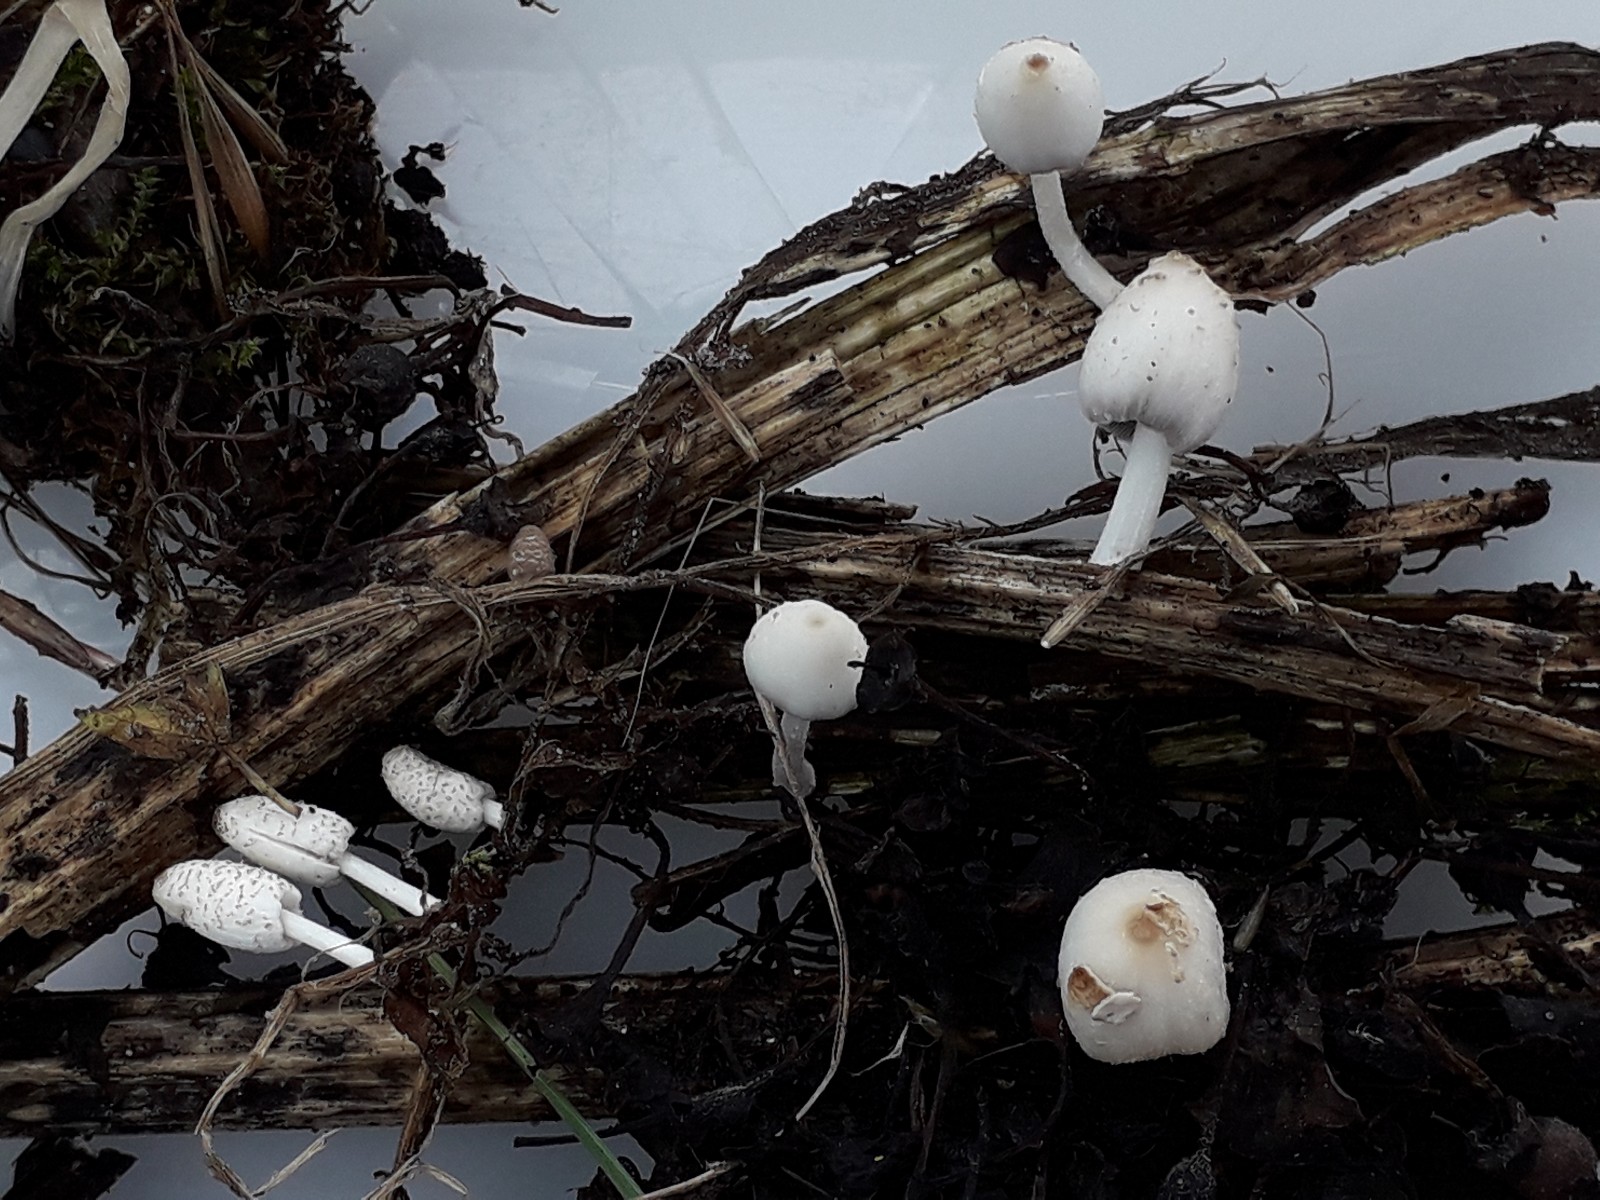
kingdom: Fungi
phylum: Basidiomycota
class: Agaricomycetes
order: Agaricales
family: Psathyrellaceae
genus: Coprinopsis
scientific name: Coprinopsis
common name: blækhat
